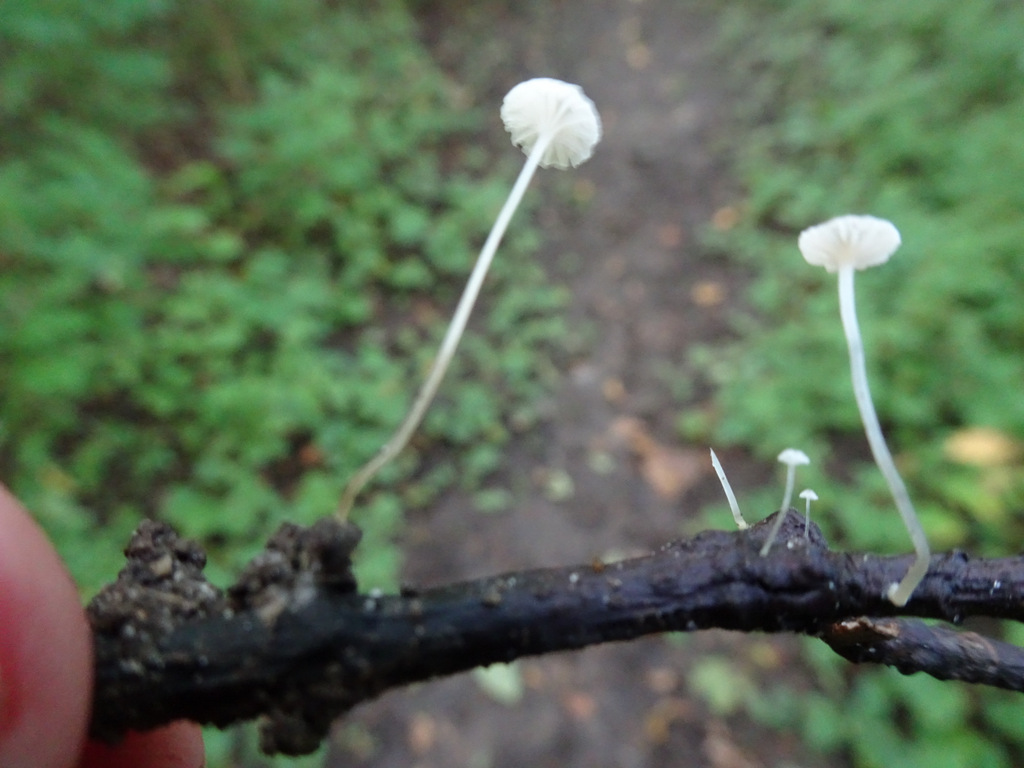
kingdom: Fungi
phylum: Basidiomycota
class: Agaricomycetes
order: Agaricales
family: Porotheleaceae
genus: Phloeomana
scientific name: Phloeomana speirea
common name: kvist-huesvamp
